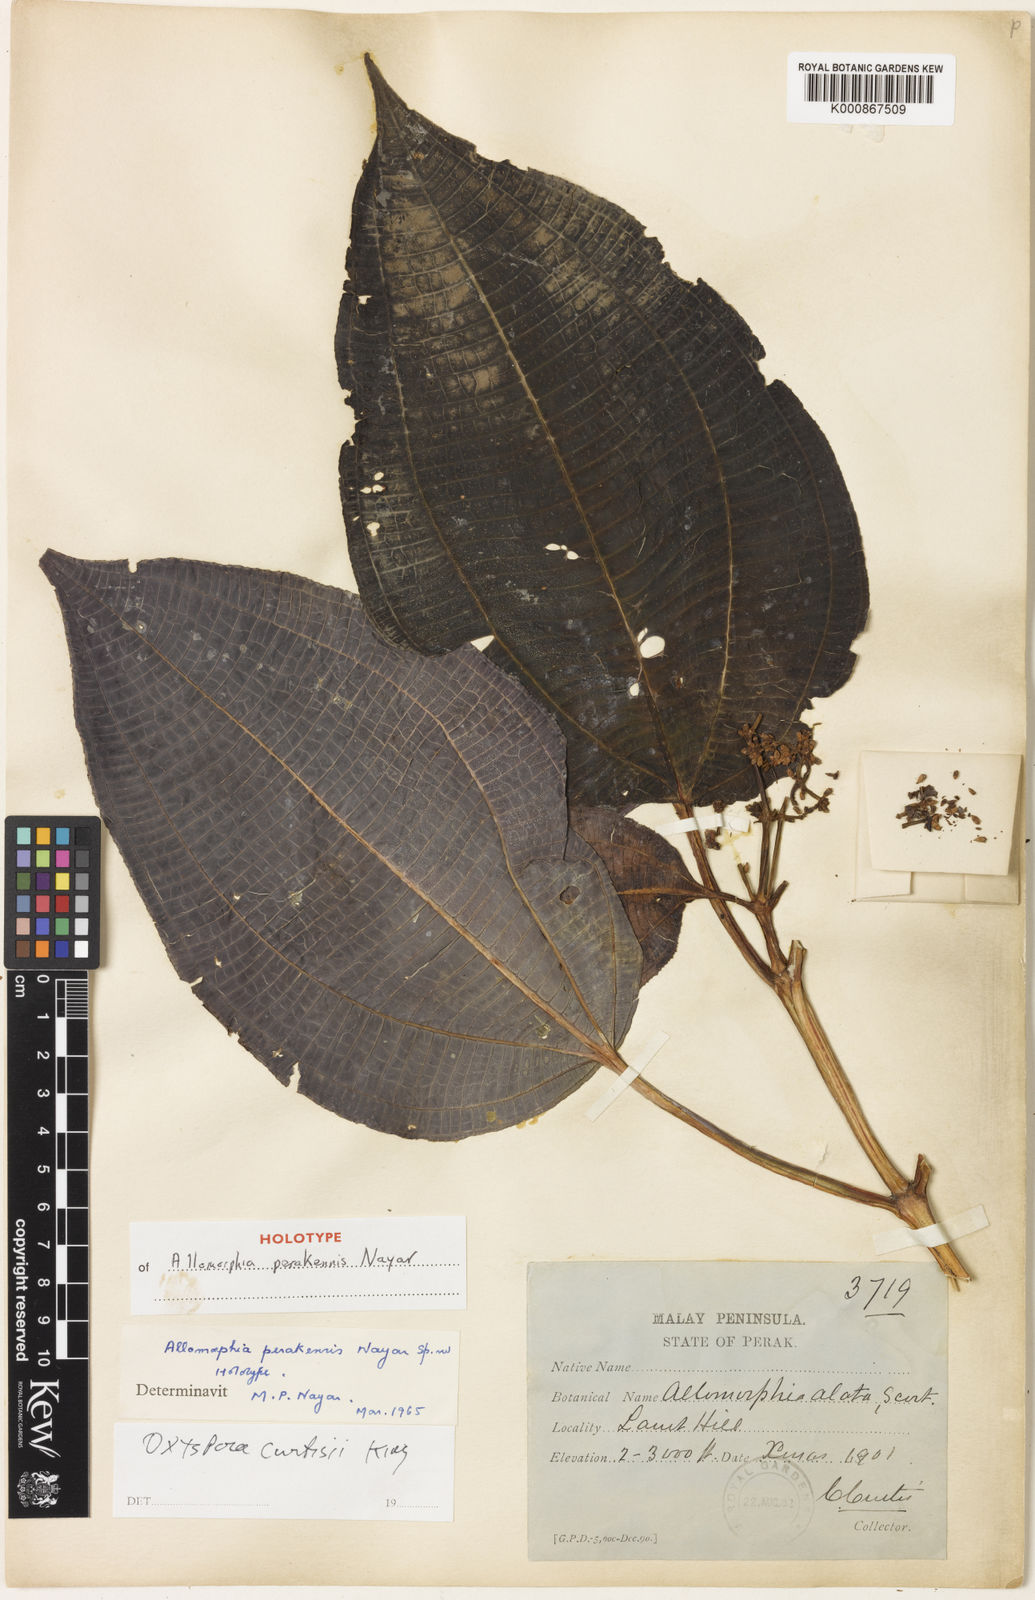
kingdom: Plantae
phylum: Tracheophyta
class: Magnoliopsida
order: Myrtales
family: Melastomataceae
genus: Allomorphia
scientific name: Allomorphia curtisii
